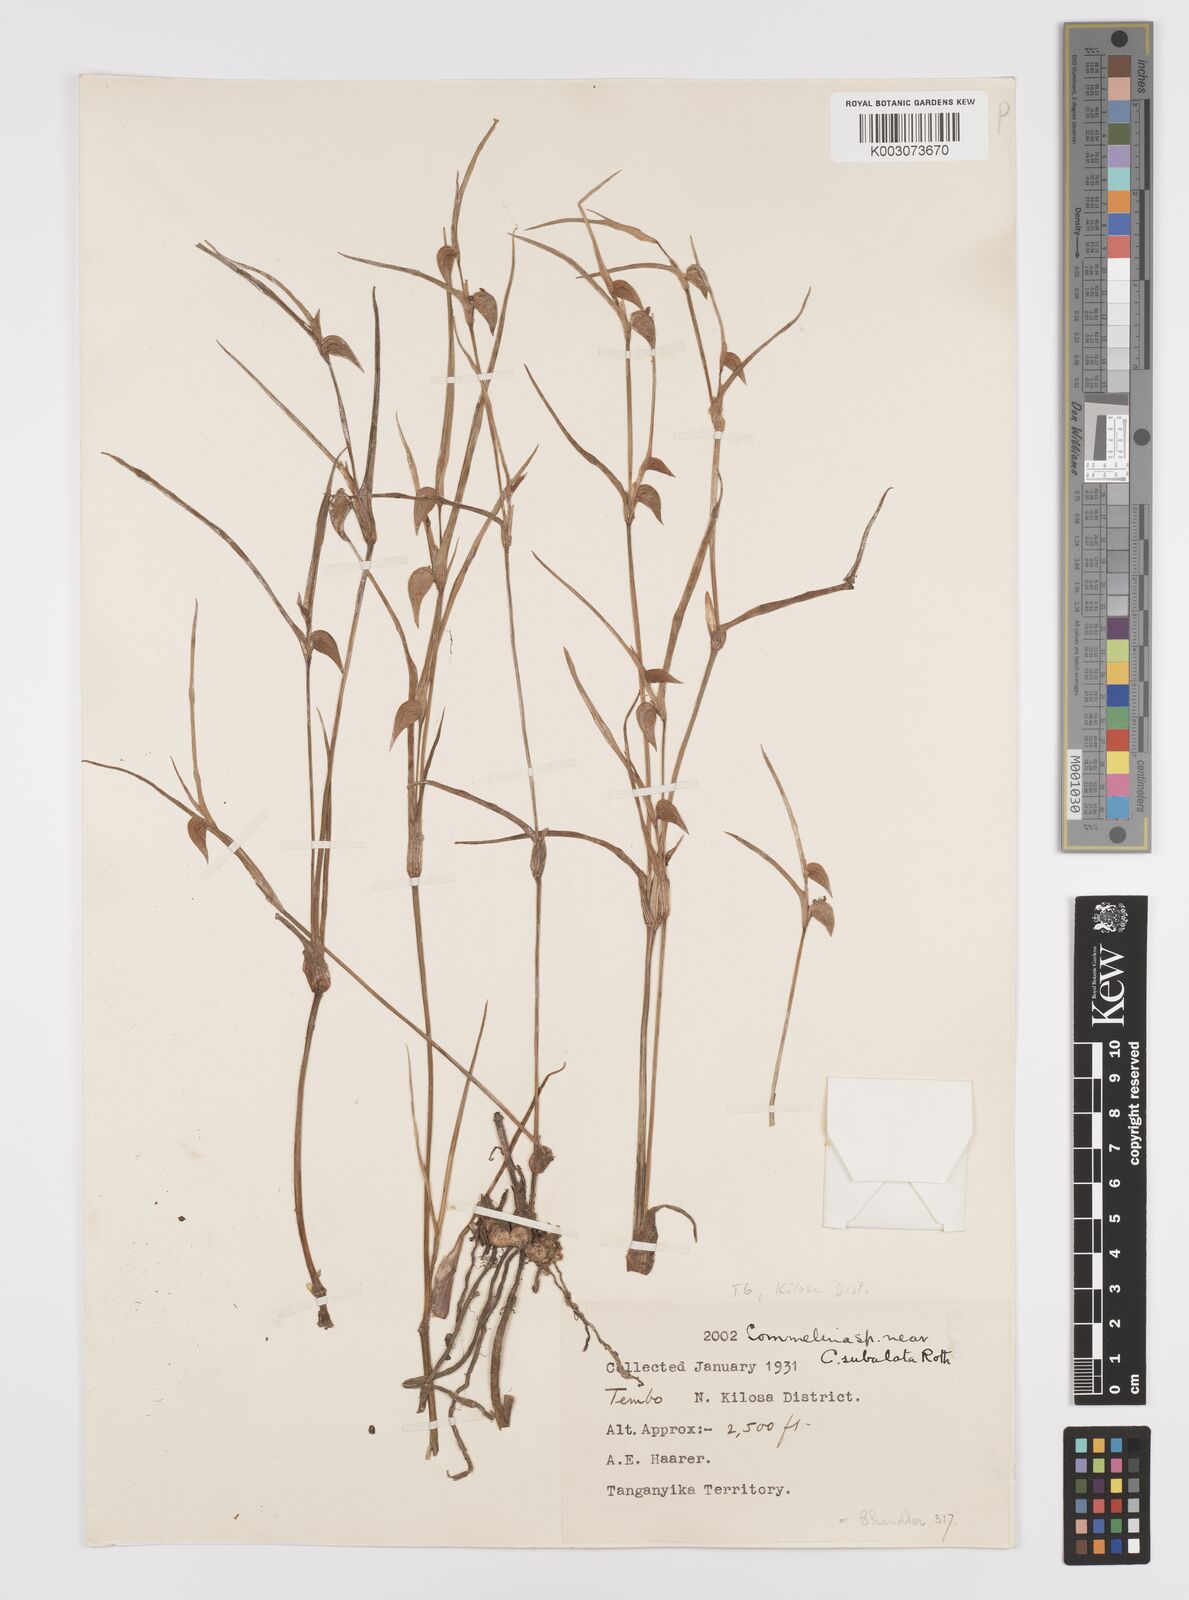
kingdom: Plantae
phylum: Tracheophyta
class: Liliopsida
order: Commelinales
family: Commelinaceae
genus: Commelina
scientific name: Commelina purpurea
